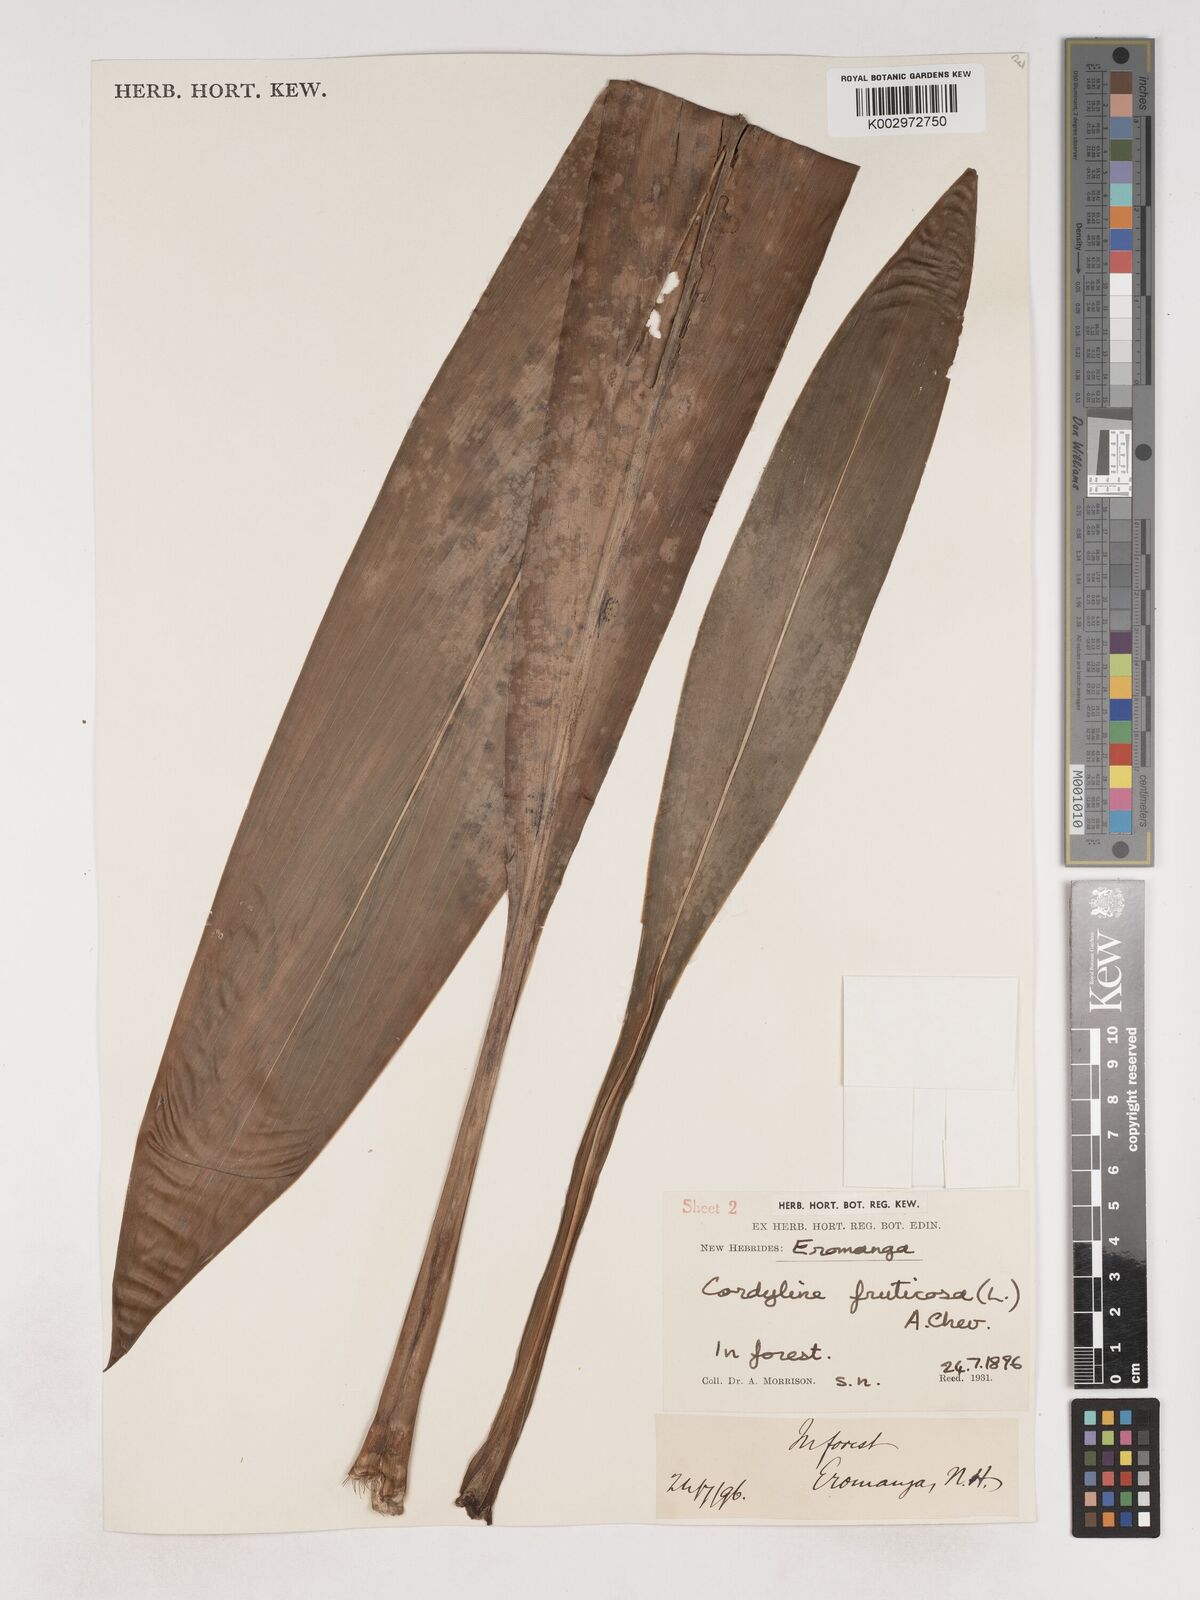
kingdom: Plantae
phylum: Tracheophyta
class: Liliopsida
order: Asparagales
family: Asparagaceae
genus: Cordyline
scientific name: Cordyline fruticosa
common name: Good-luck-plant
